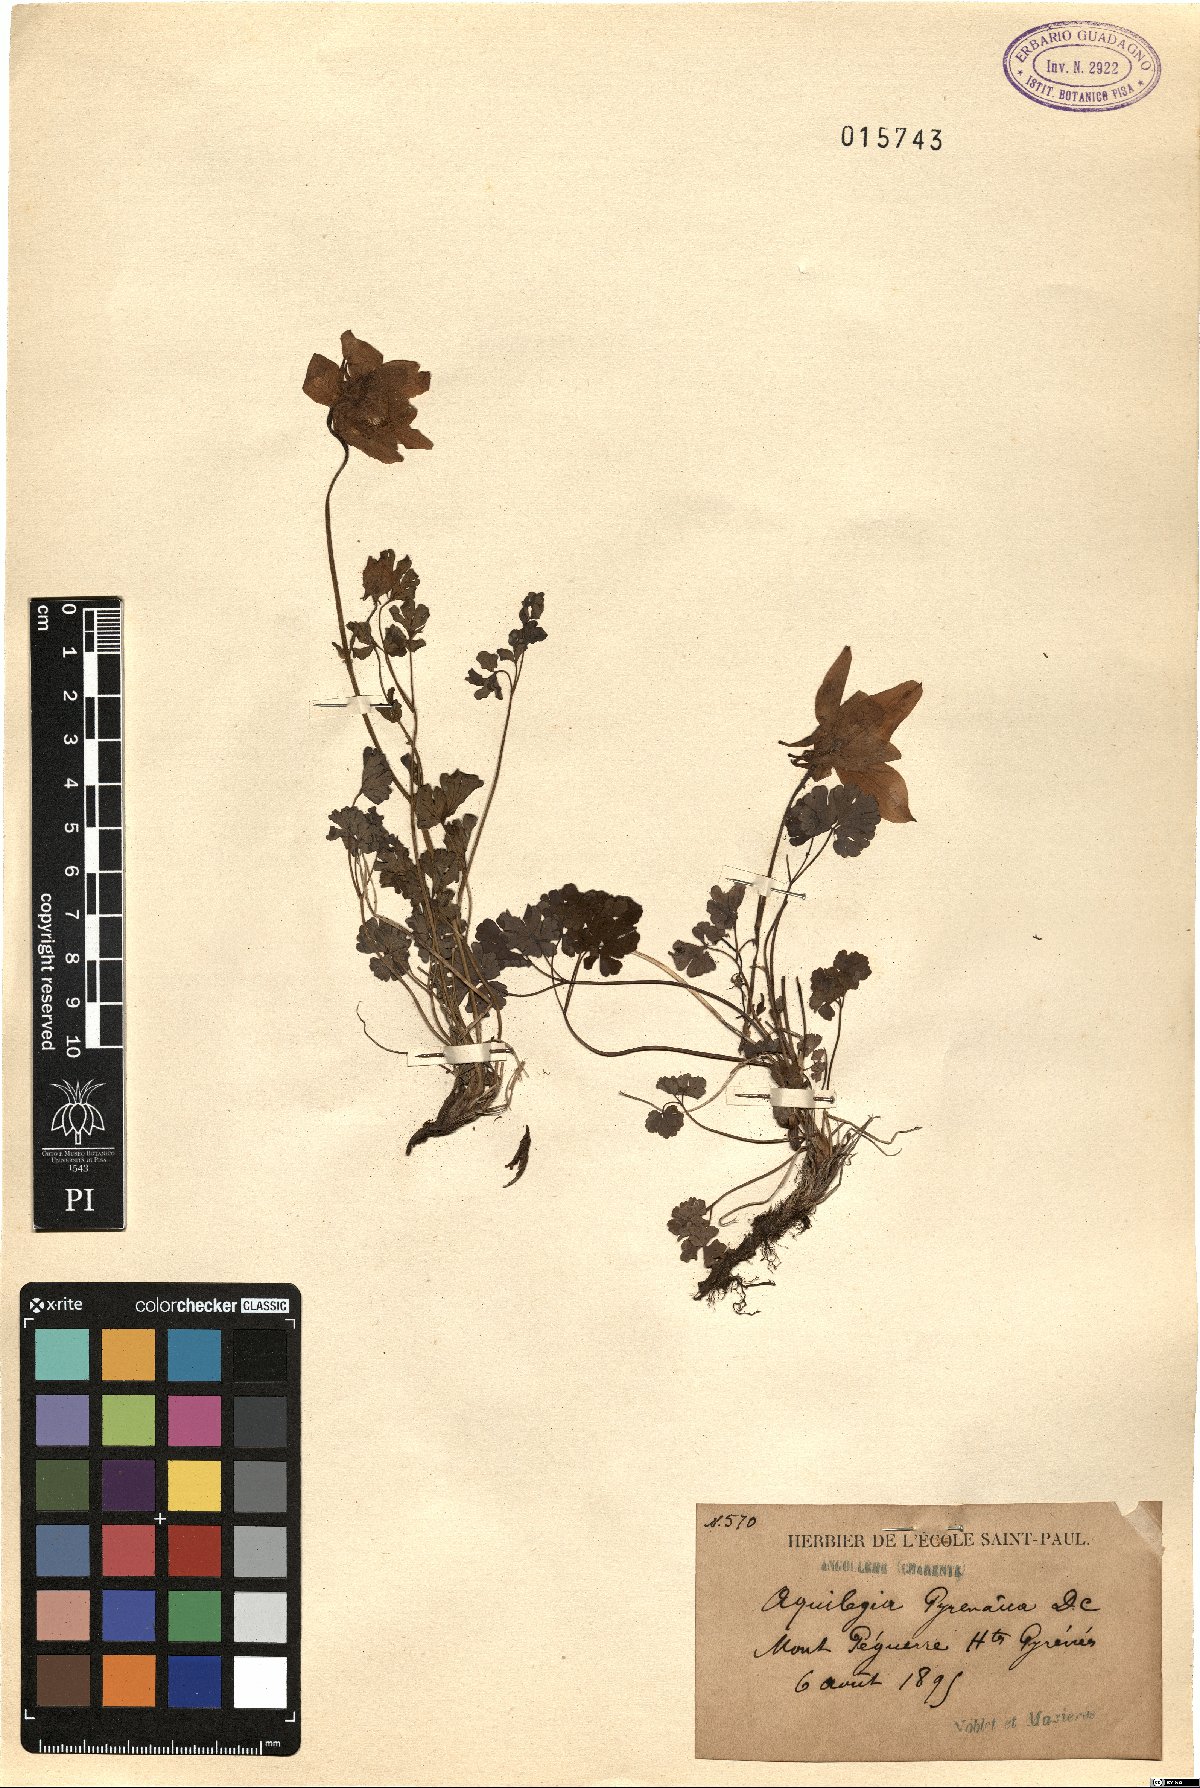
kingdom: Plantae
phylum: Tracheophyta
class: Magnoliopsida
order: Ranunculales
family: Ranunculaceae
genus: Aquilegia
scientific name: Aquilegia pyrenaica
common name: Pyrenean columbine
